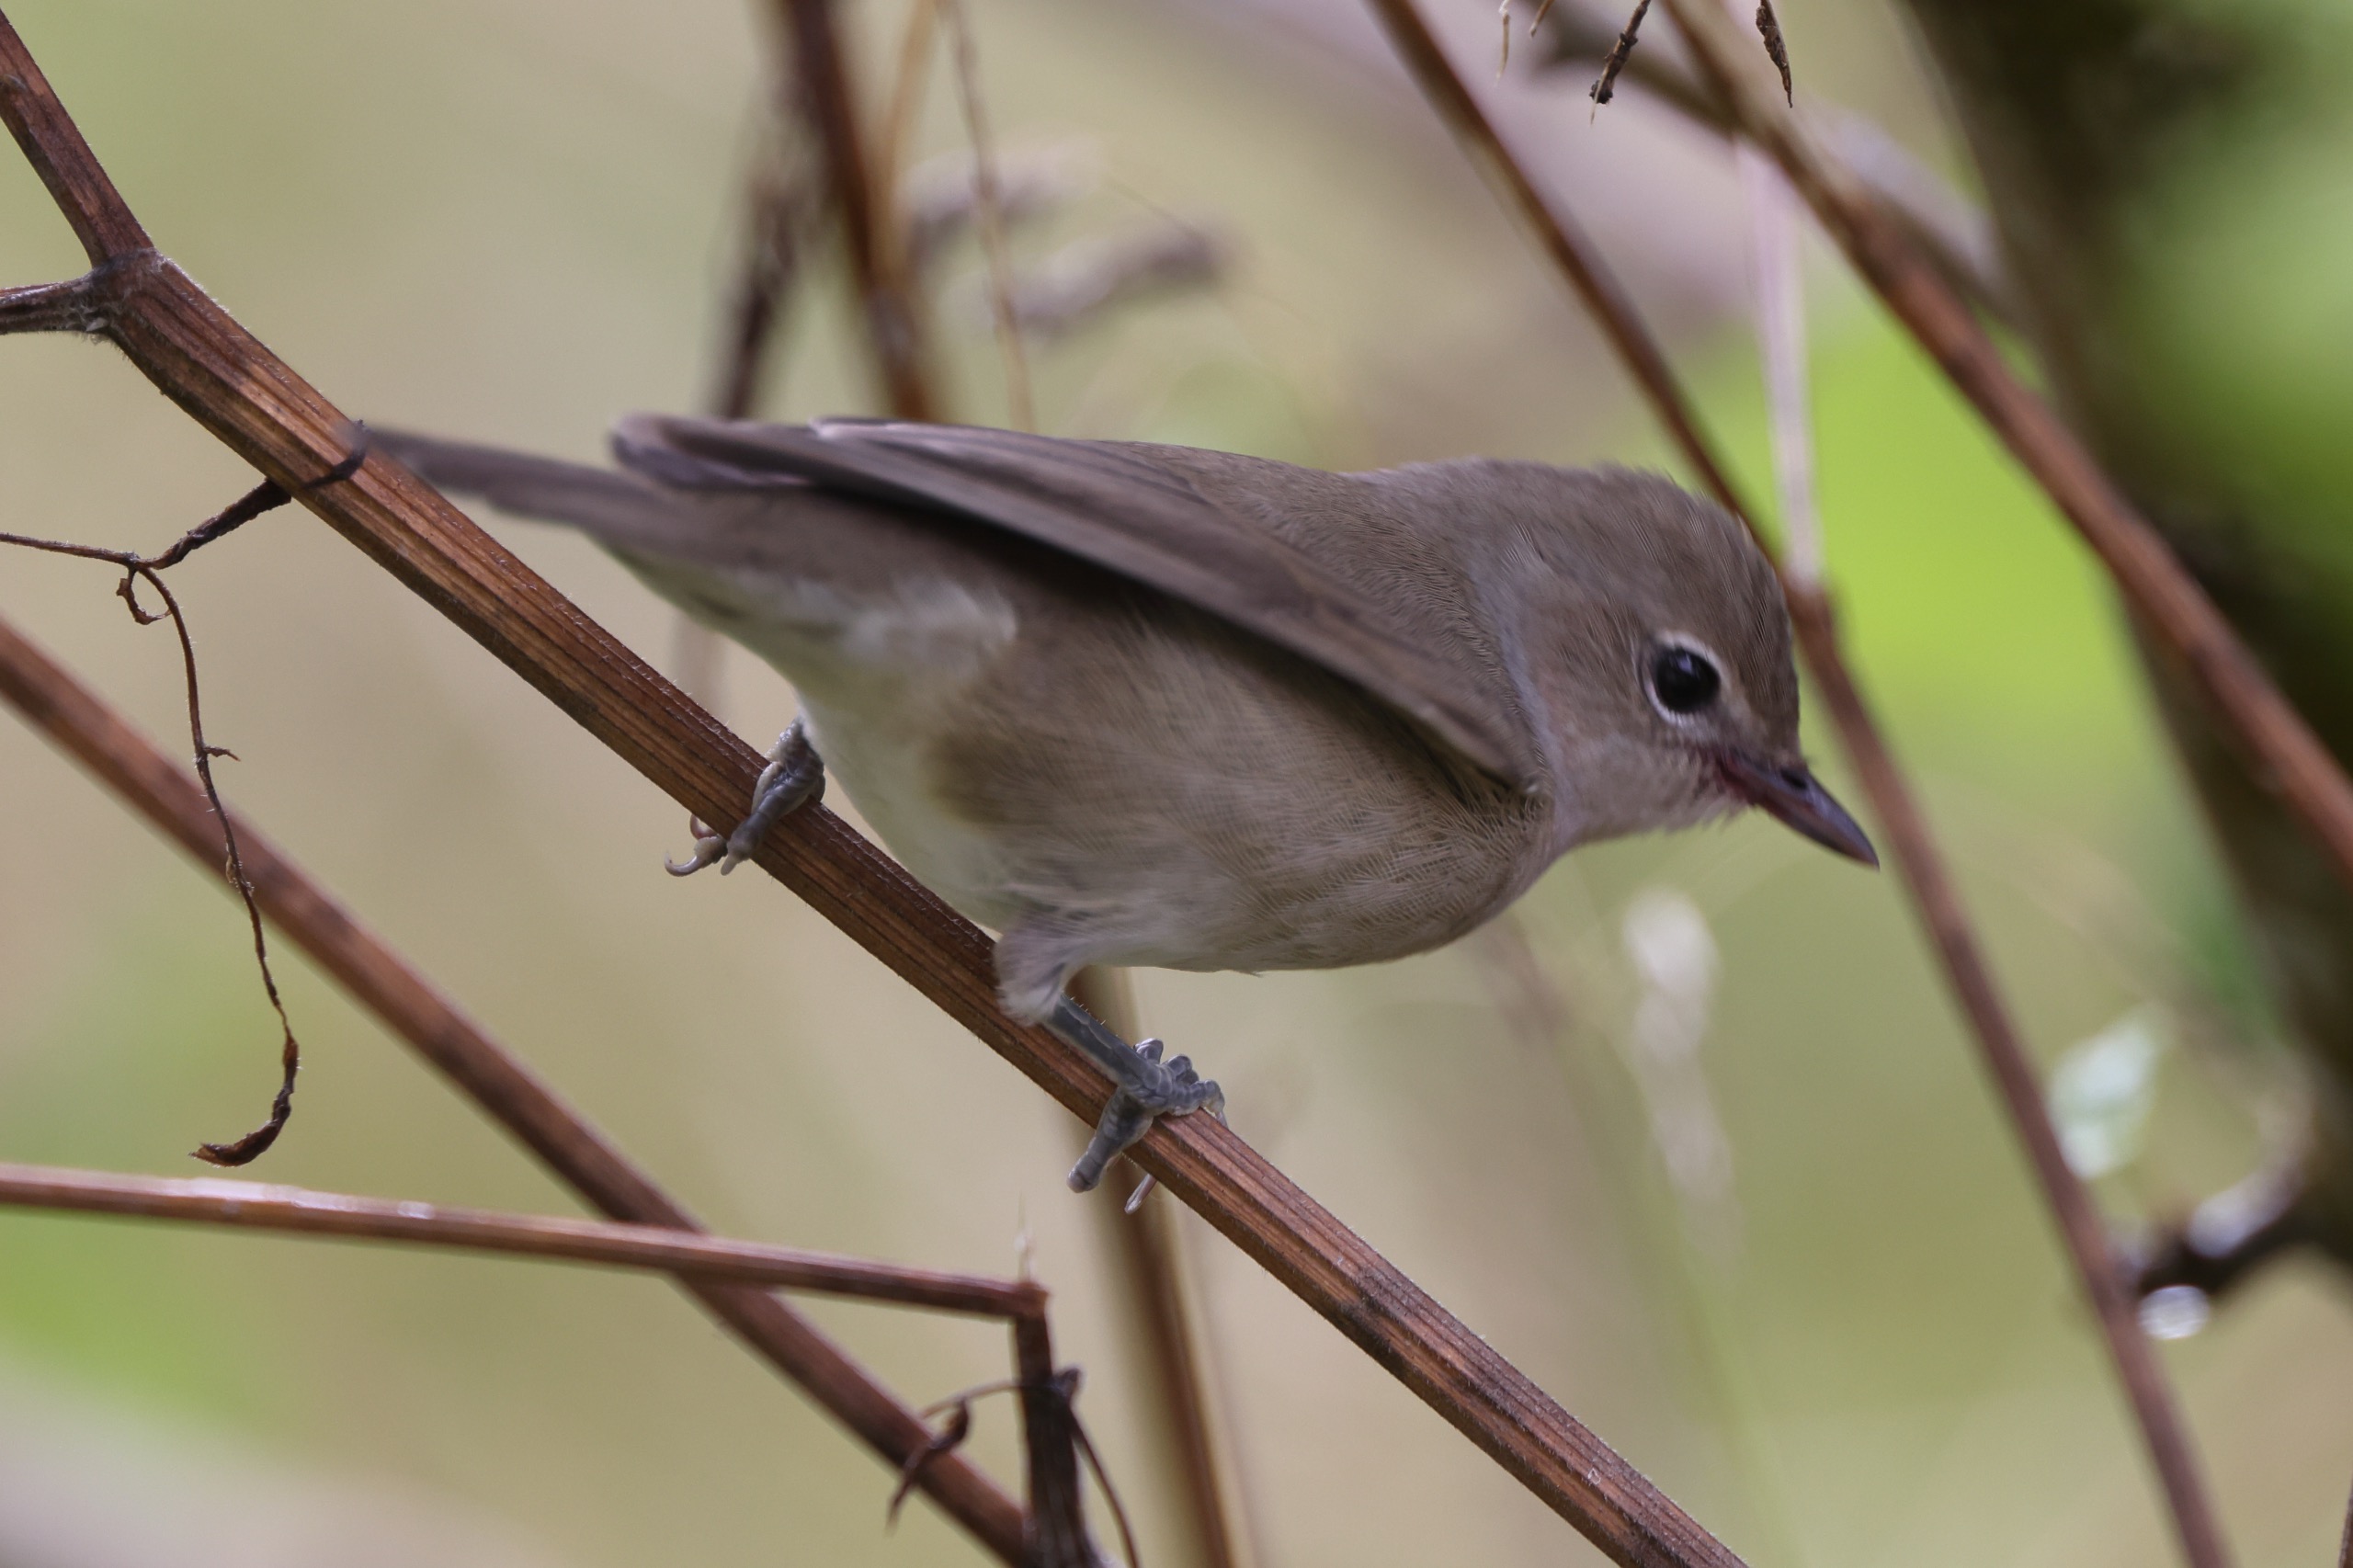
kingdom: Animalia
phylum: Chordata
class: Aves
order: Passeriformes
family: Sylviidae
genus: Sylvia
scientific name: Sylvia borin
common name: Havesanger
